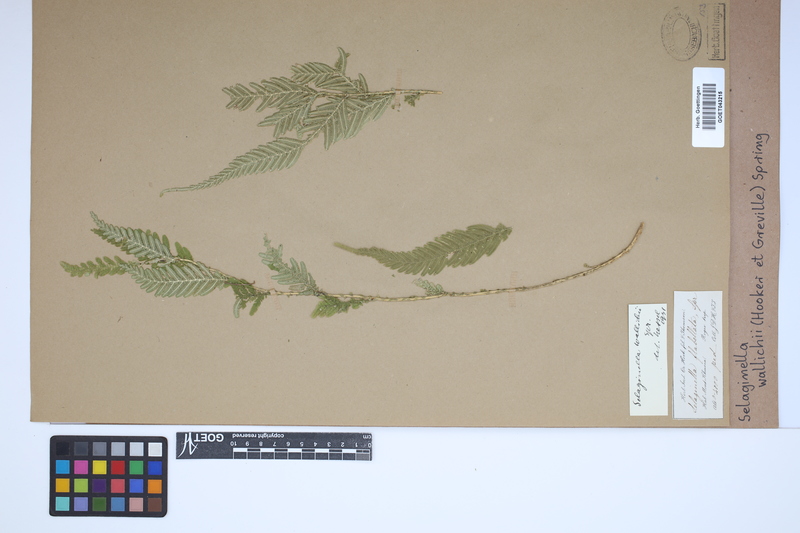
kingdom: Plantae
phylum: Tracheophyta
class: Lycopodiopsida
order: Selaginellales
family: Selaginellaceae
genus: Selaginella
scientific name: Selaginella wallichii
